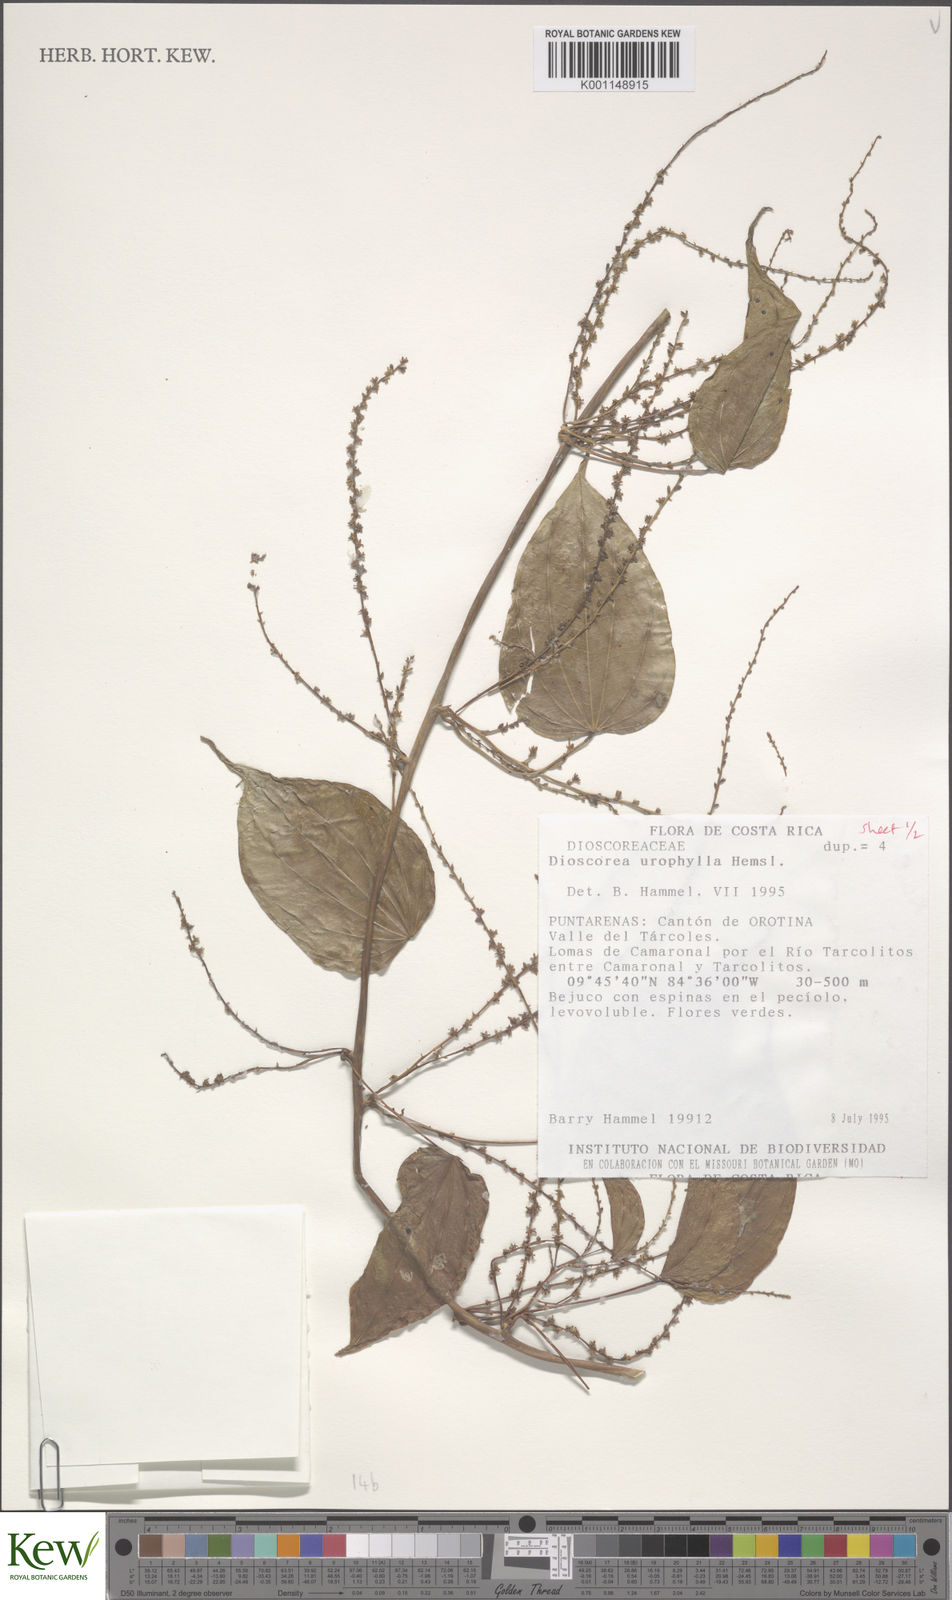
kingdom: Plantae
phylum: Tracheophyta
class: Liliopsida
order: Dioscoreales
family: Dioscoreaceae
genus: Dioscorea
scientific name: Dioscorea
